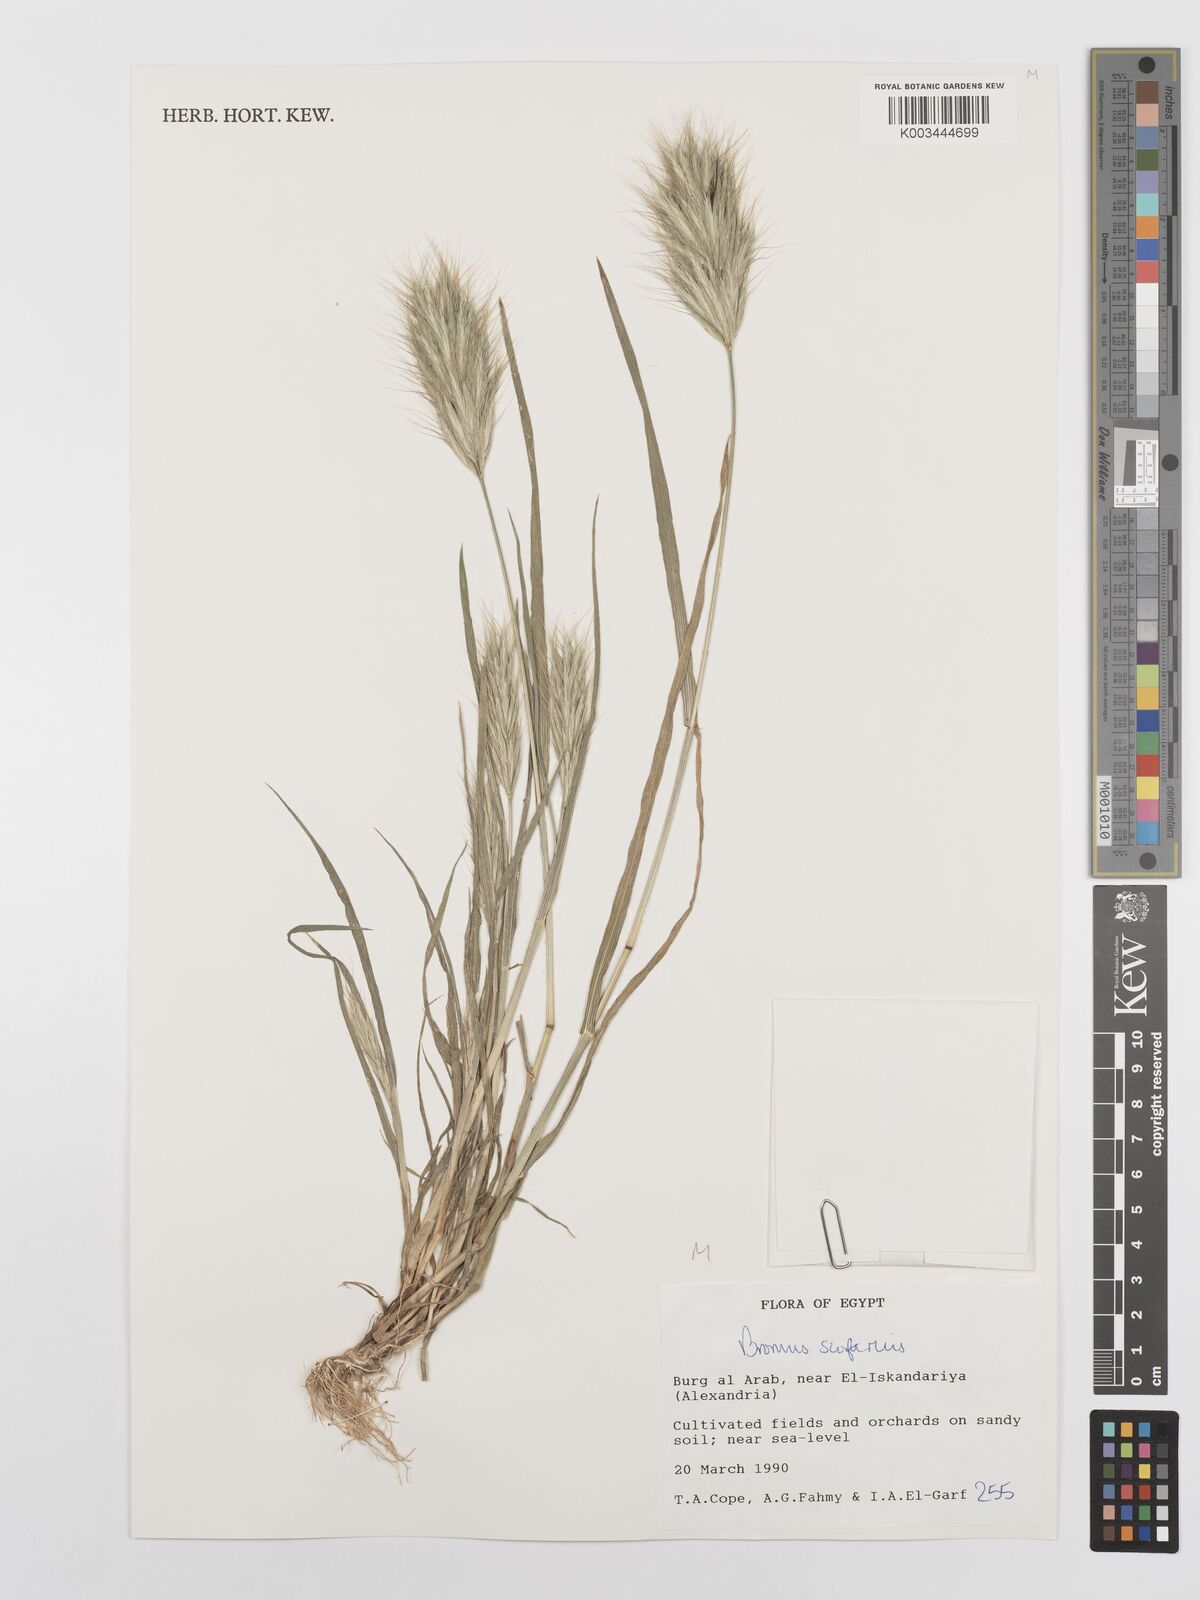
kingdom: Plantae
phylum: Tracheophyta
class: Liliopsida
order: Poales
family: Poaceae
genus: Bromus
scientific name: Bromus scoparius
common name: Broom brome
